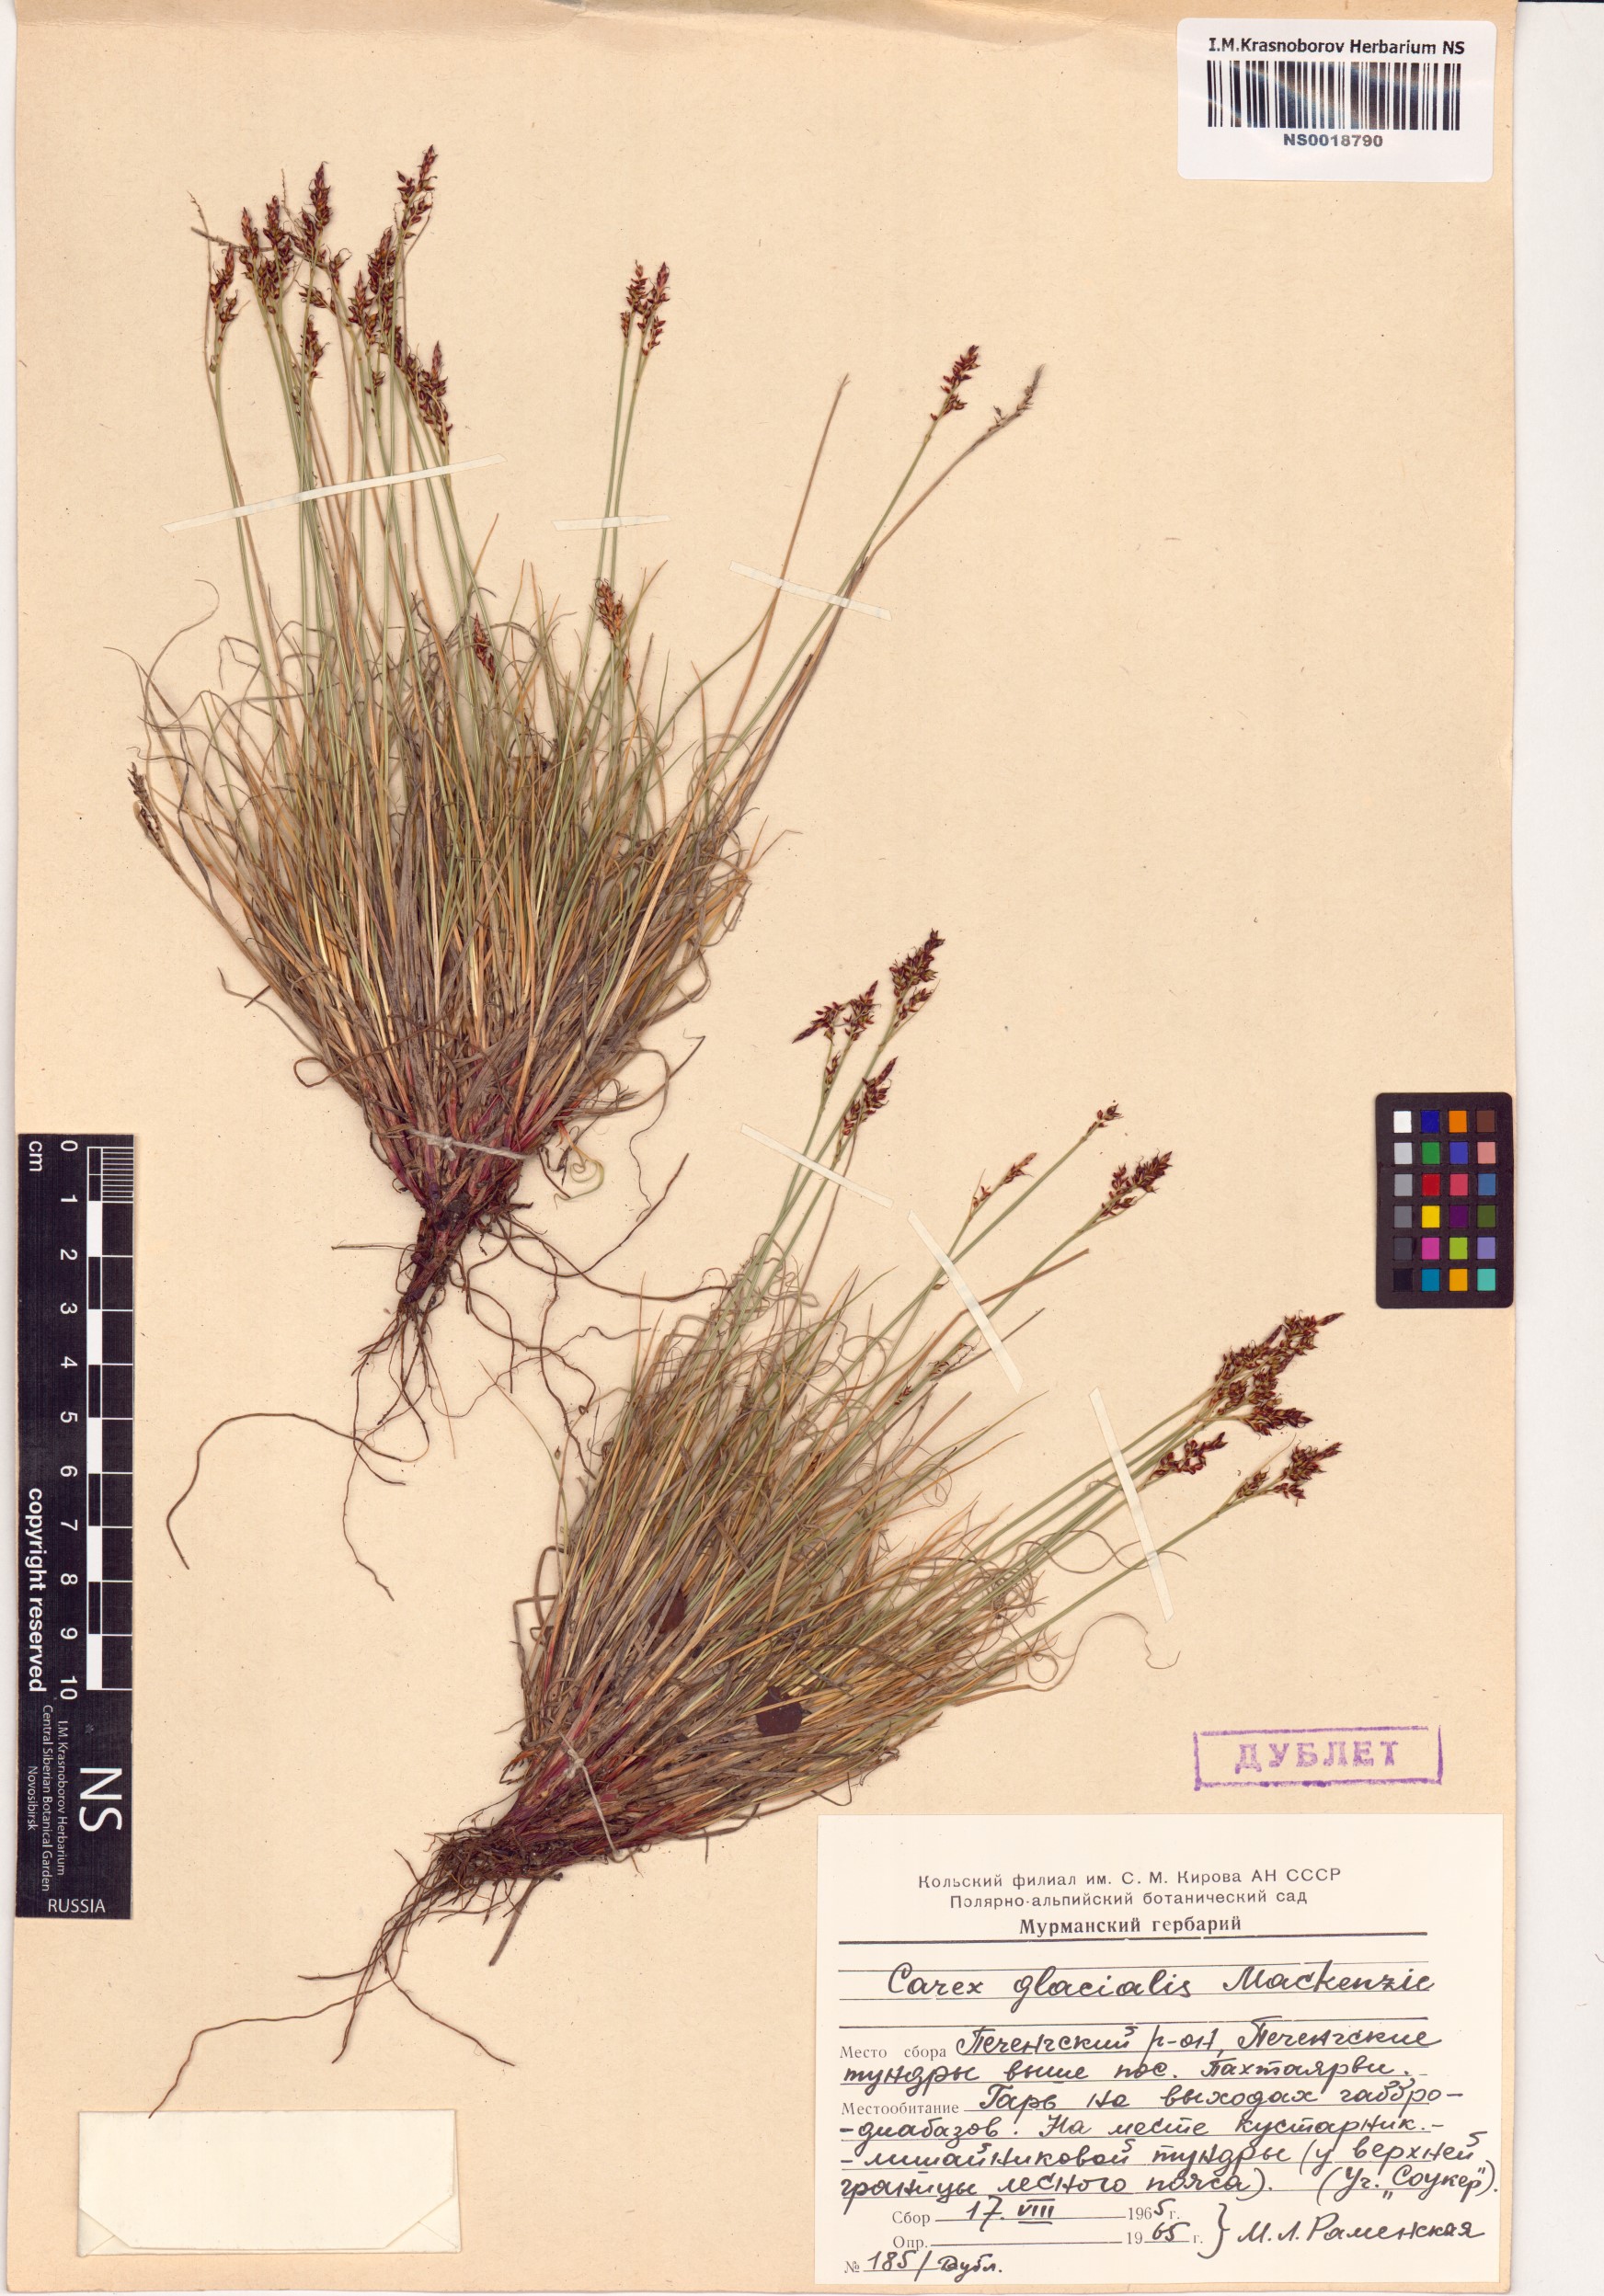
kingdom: Plantae
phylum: Tracheophyta
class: Liliopsida
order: Poales
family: Cyperaceae
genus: Carex
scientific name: Carex glacialis
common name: Newfoundland sedge
